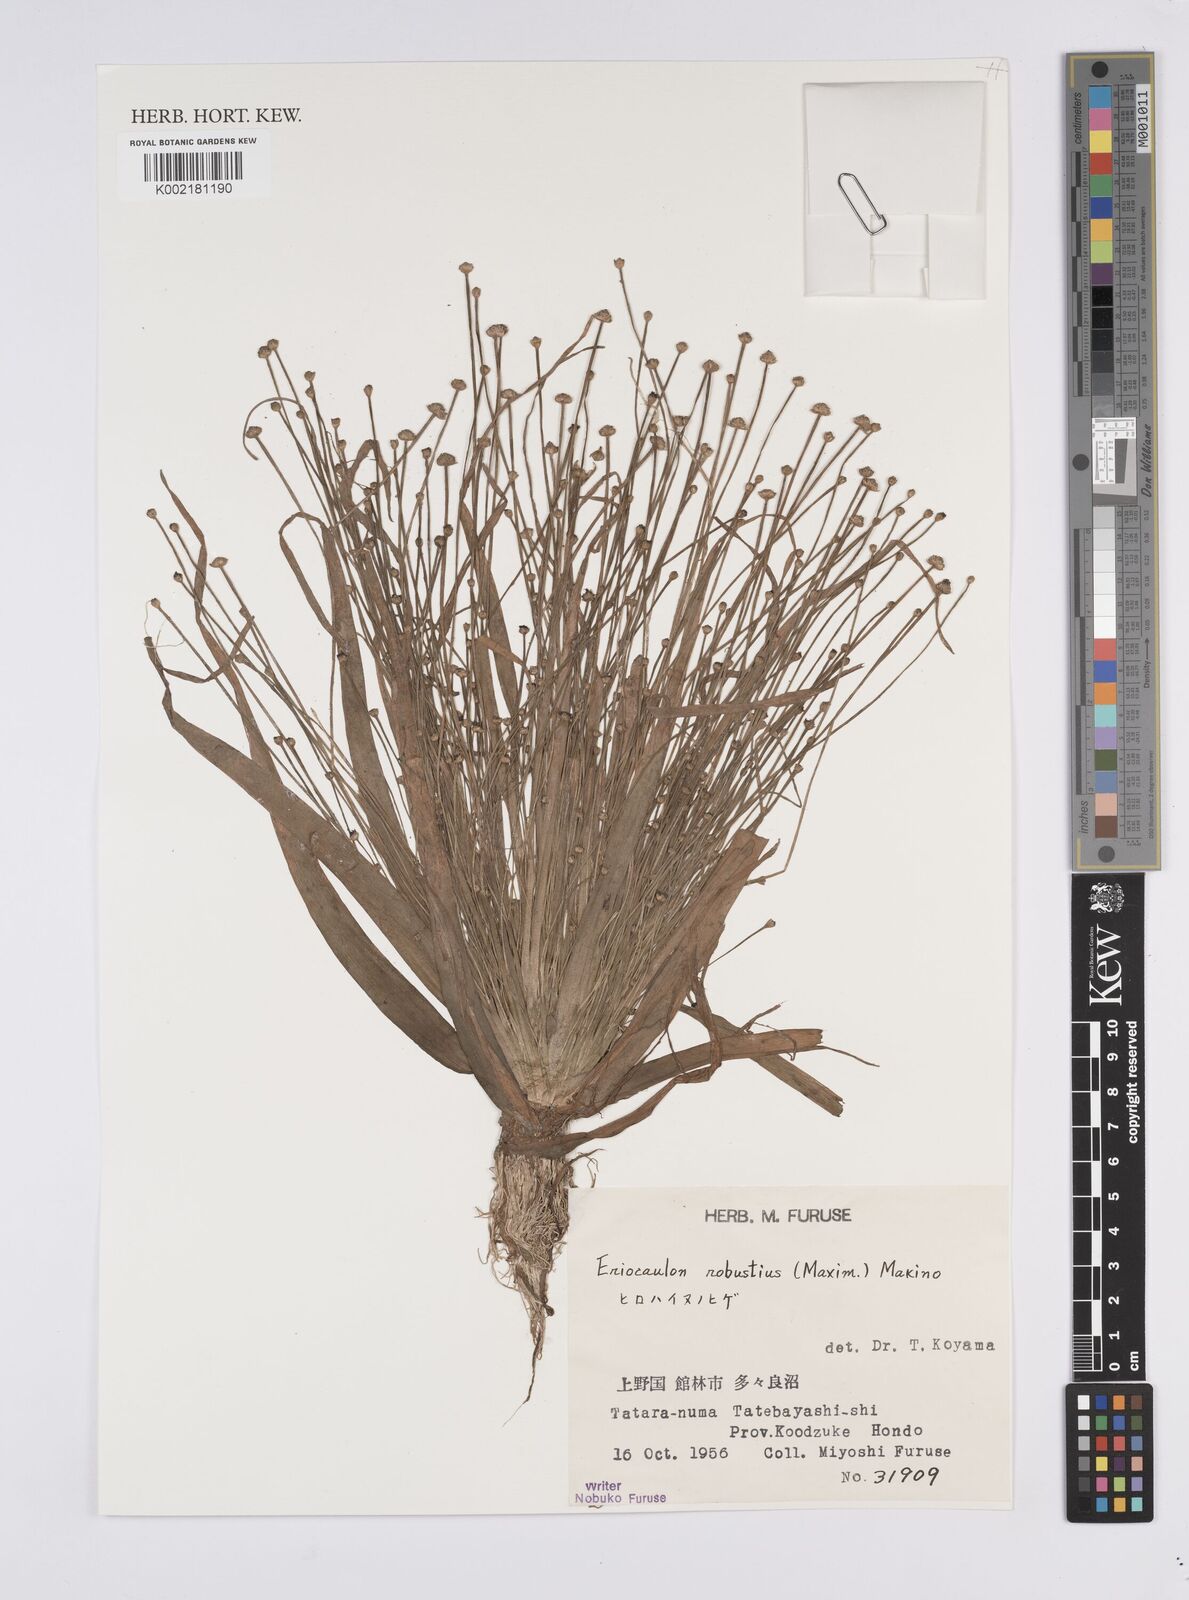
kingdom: Plantae
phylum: Tracheophyta
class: Liliopsida
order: Poales
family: Eriocaulaceae
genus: Eriocaulon
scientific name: Eriocaulon alpestre
